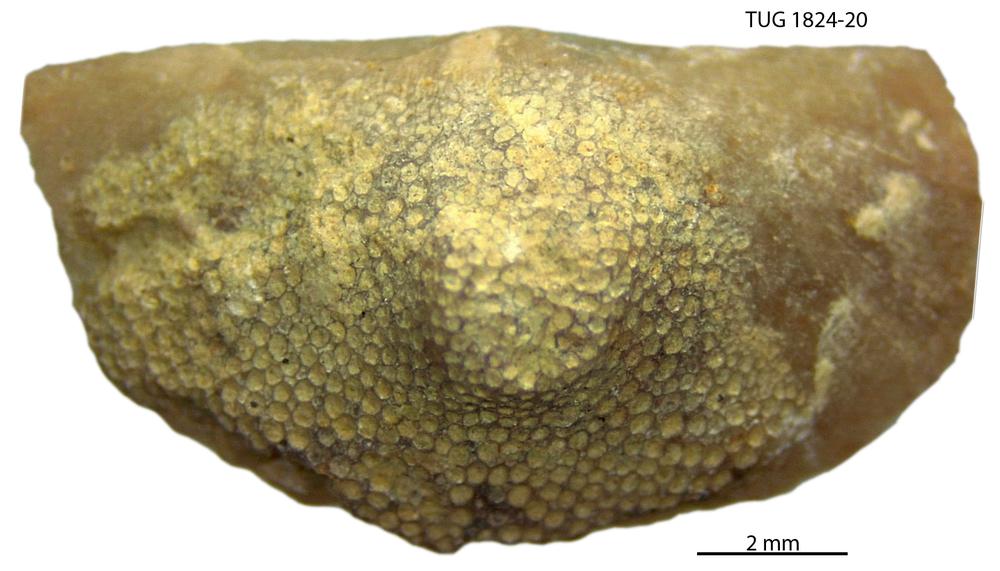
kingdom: Animalia
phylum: Brachiopoda
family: Sowerbyellidae
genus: Sowerbyella
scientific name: Sowerbyella
